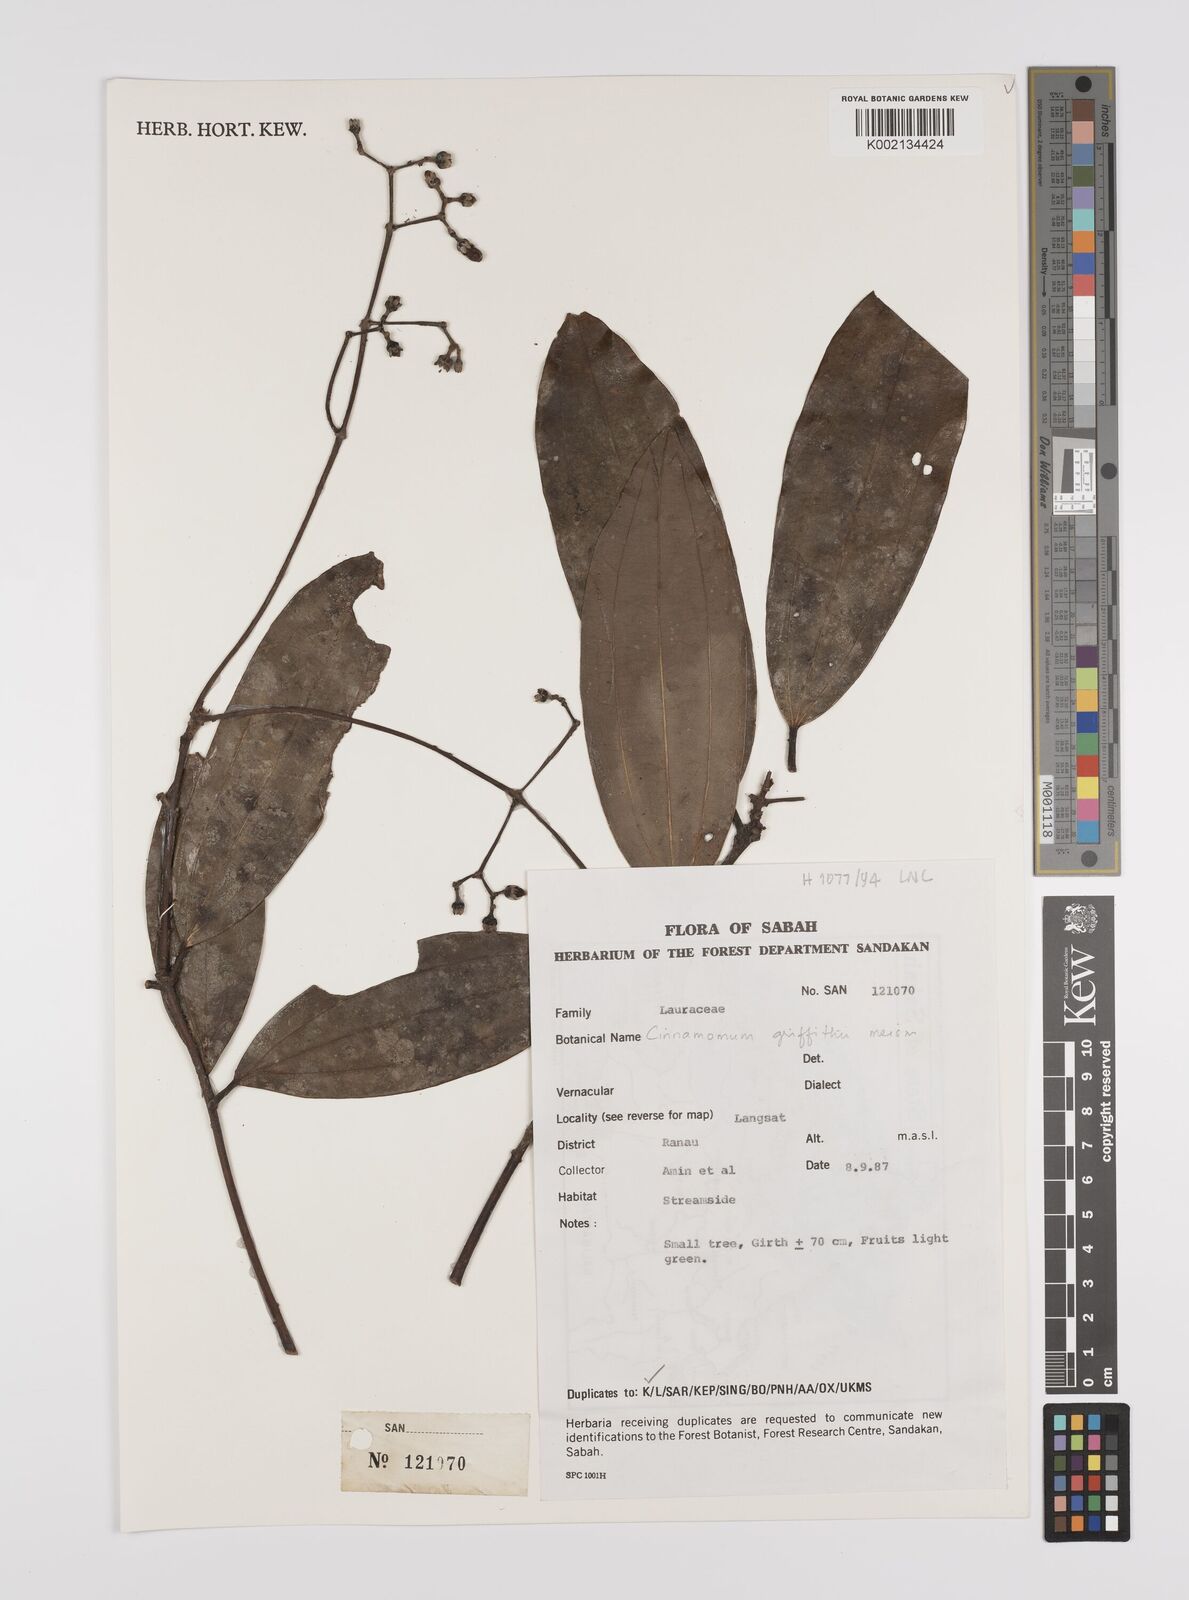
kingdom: Plantae
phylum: Tracheophyta
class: Magnoliopsida
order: Laurales
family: Lauraceae
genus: Cinnamomum
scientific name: Cinnamomum iners
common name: Wild cinnamon
